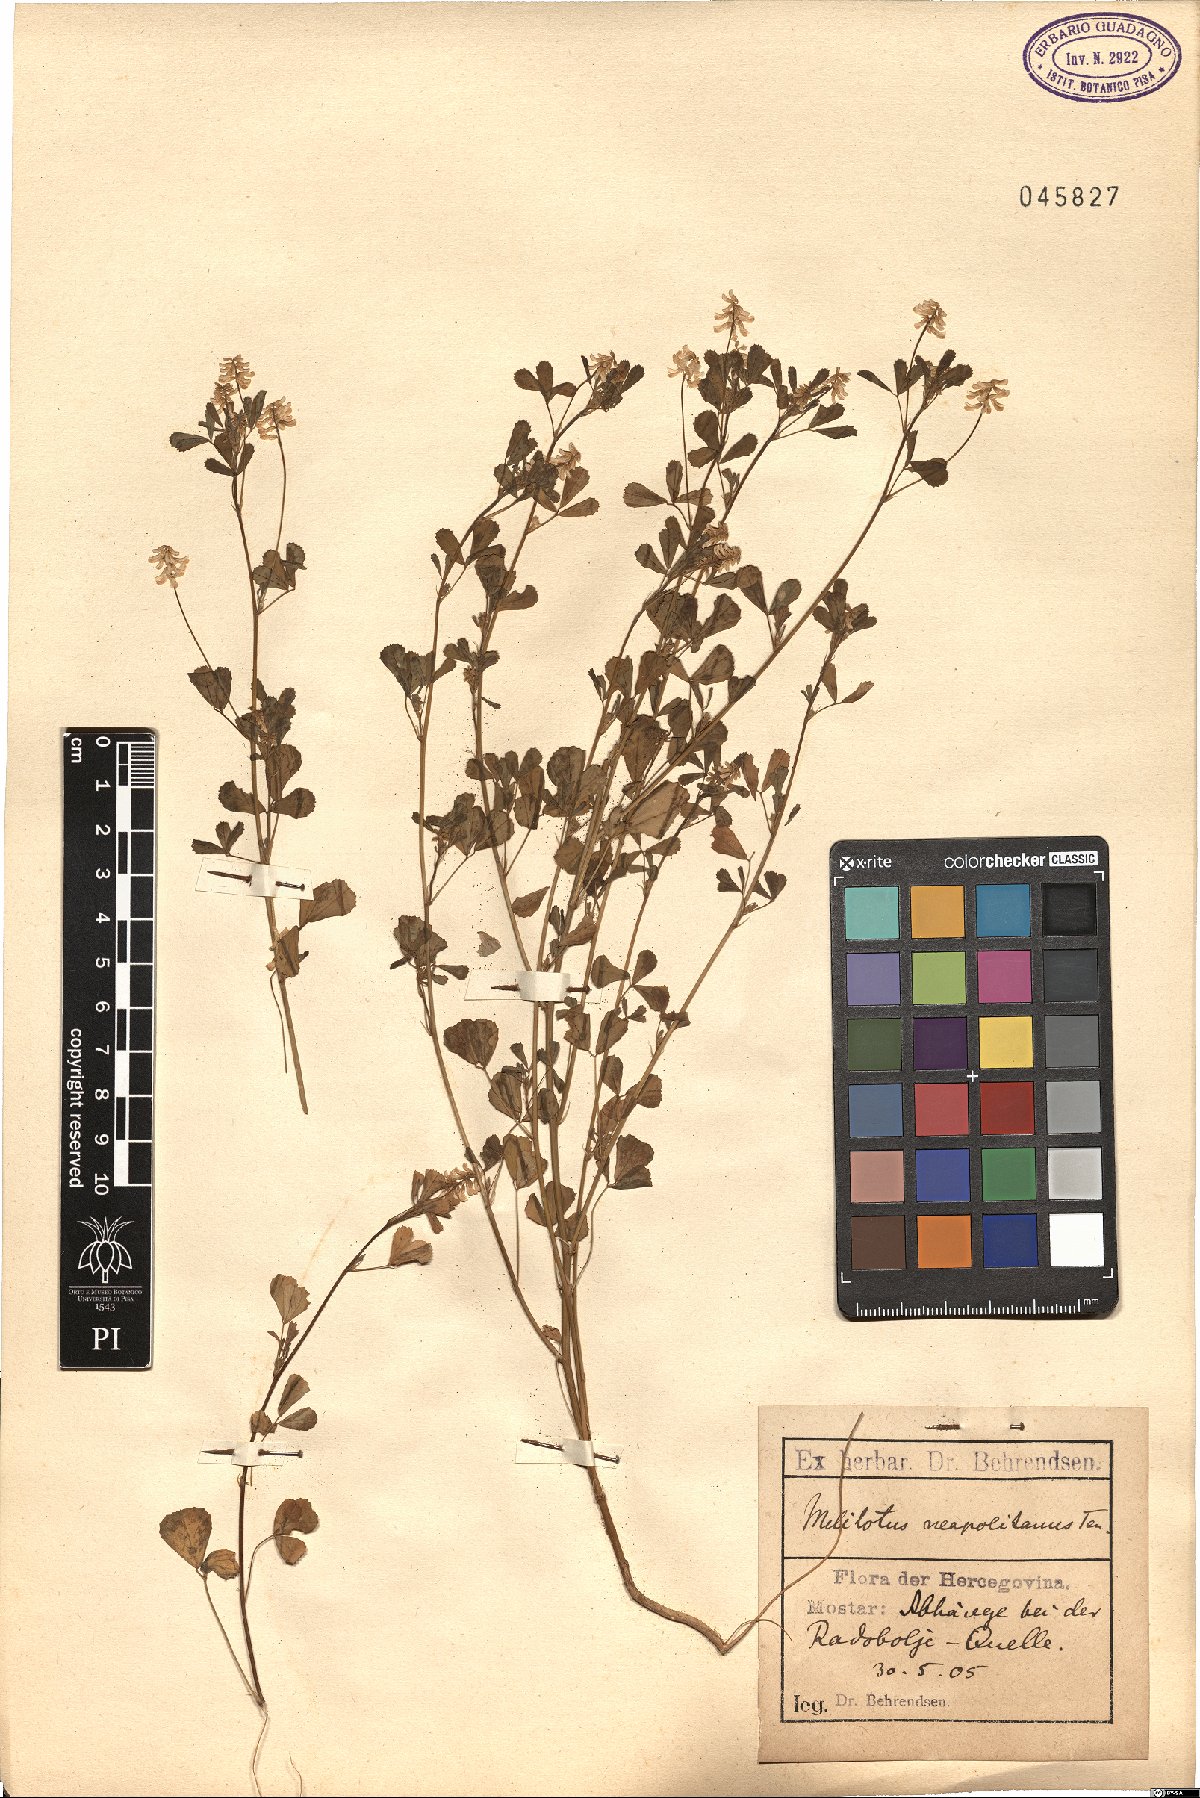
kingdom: Plantae
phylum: Tracheophyta
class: Magnoliopsida
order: Fabales
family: Fabaceae
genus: Melilotus
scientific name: Melilotus neapolitanus
